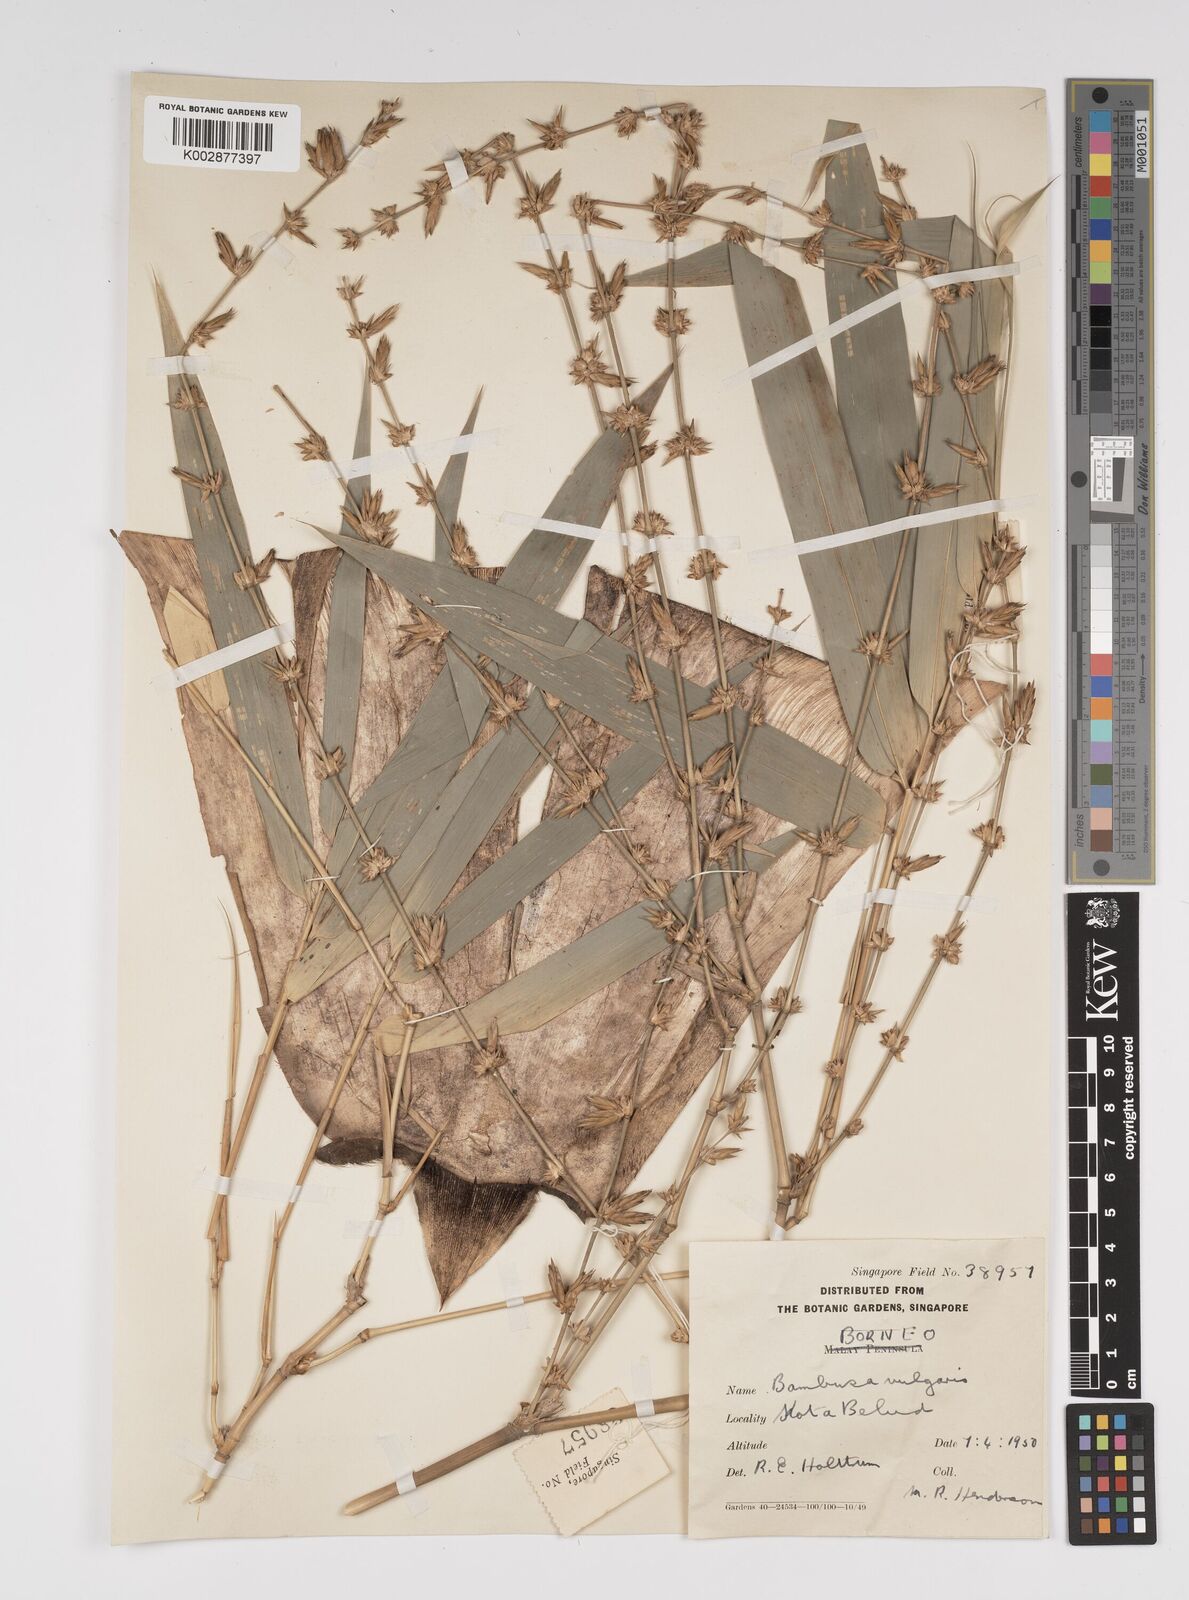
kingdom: Plantae
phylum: Tracheophyta
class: Liliopsida
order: Poales
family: Poaceae
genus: Bambusa
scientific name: Bambusa
